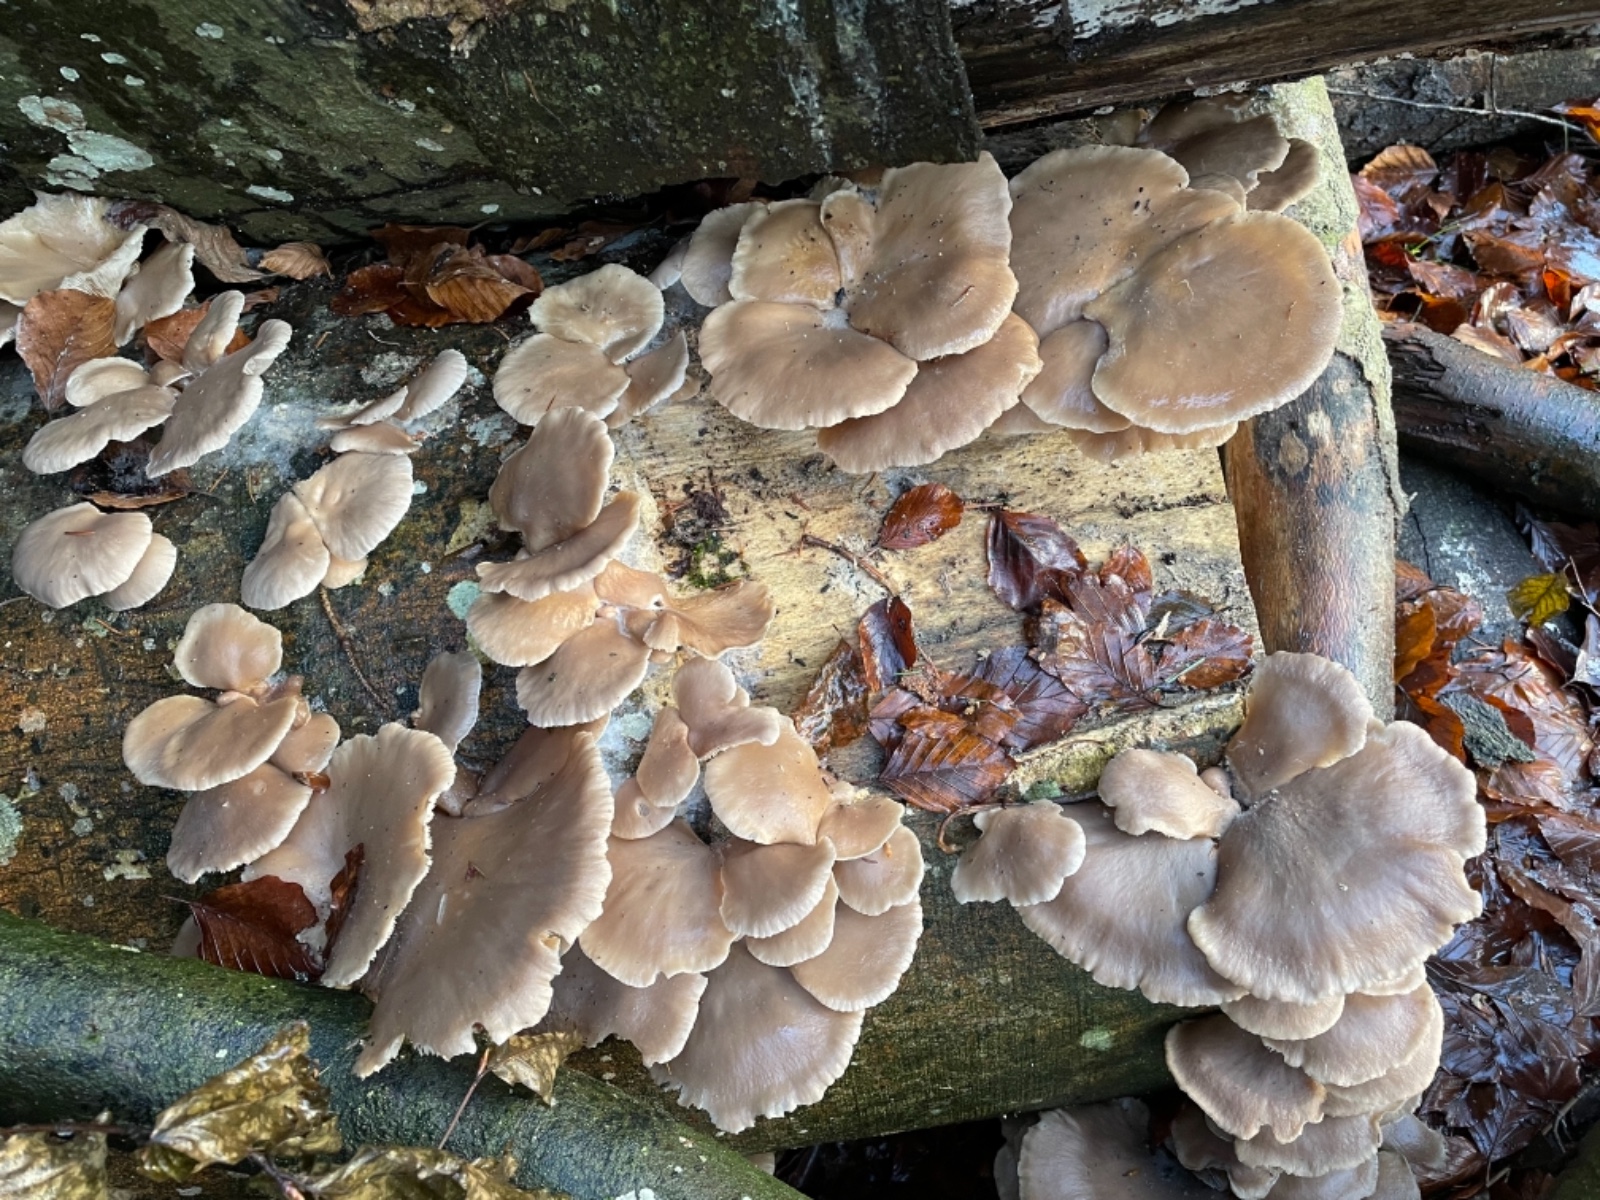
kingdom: Fungi
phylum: Basidiomycota
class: Agaricomycetes
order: Agaricales
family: Pleurotaceae
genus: Pleurotus
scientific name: Pleurotus ostreatus
